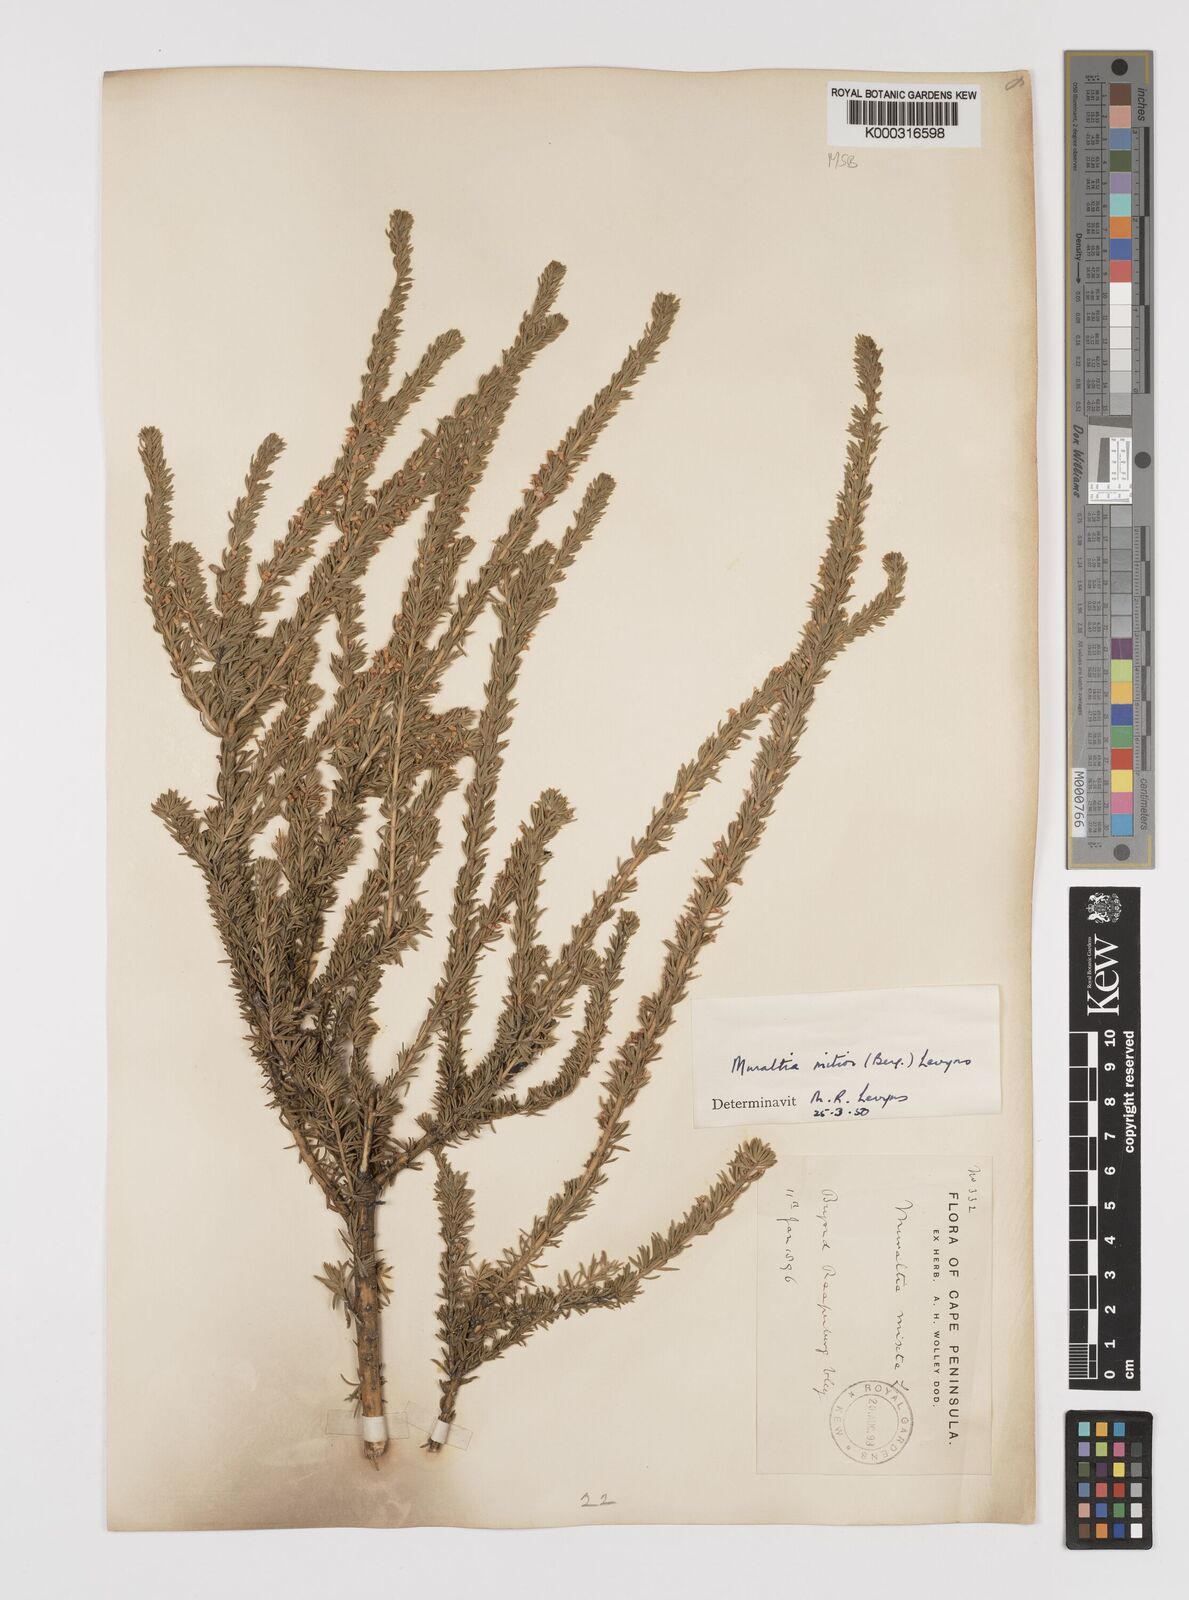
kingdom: Plantae
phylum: Tracheophyta
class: Magnoliopsida
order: Fabales
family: Polygalaceae
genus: Muraltia
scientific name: Muraltia
